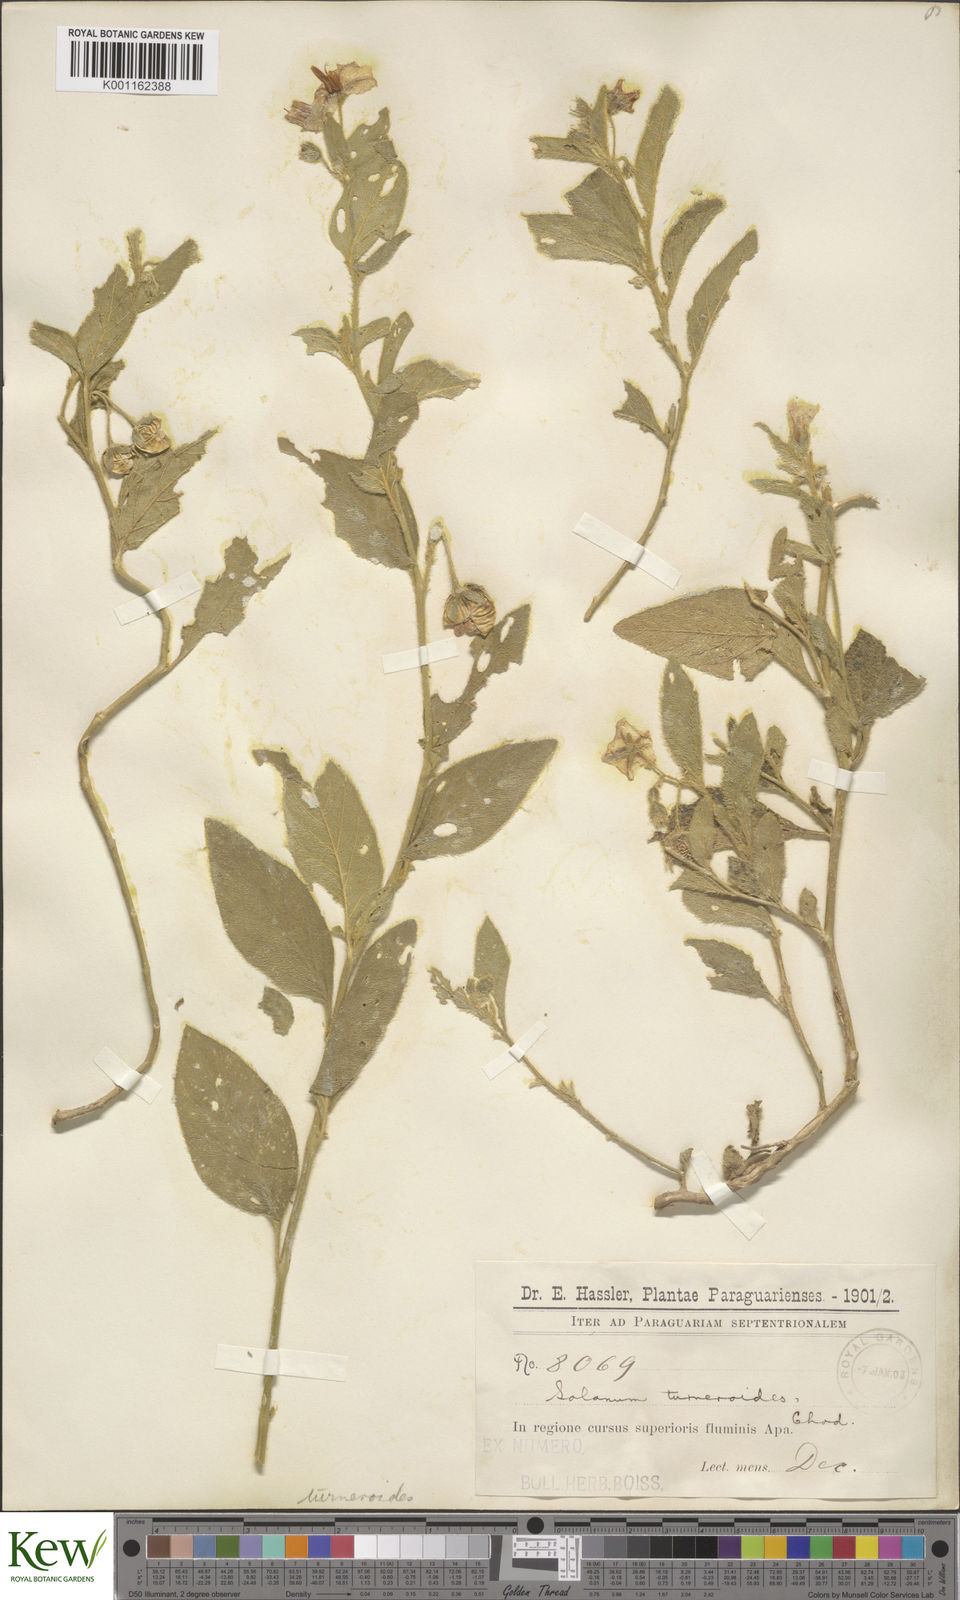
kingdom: Plantae
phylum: Tracheophyta
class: Magnoliopsida
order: Solanales
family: Solanaceae
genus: Solanum
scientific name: Solanum turneroides
